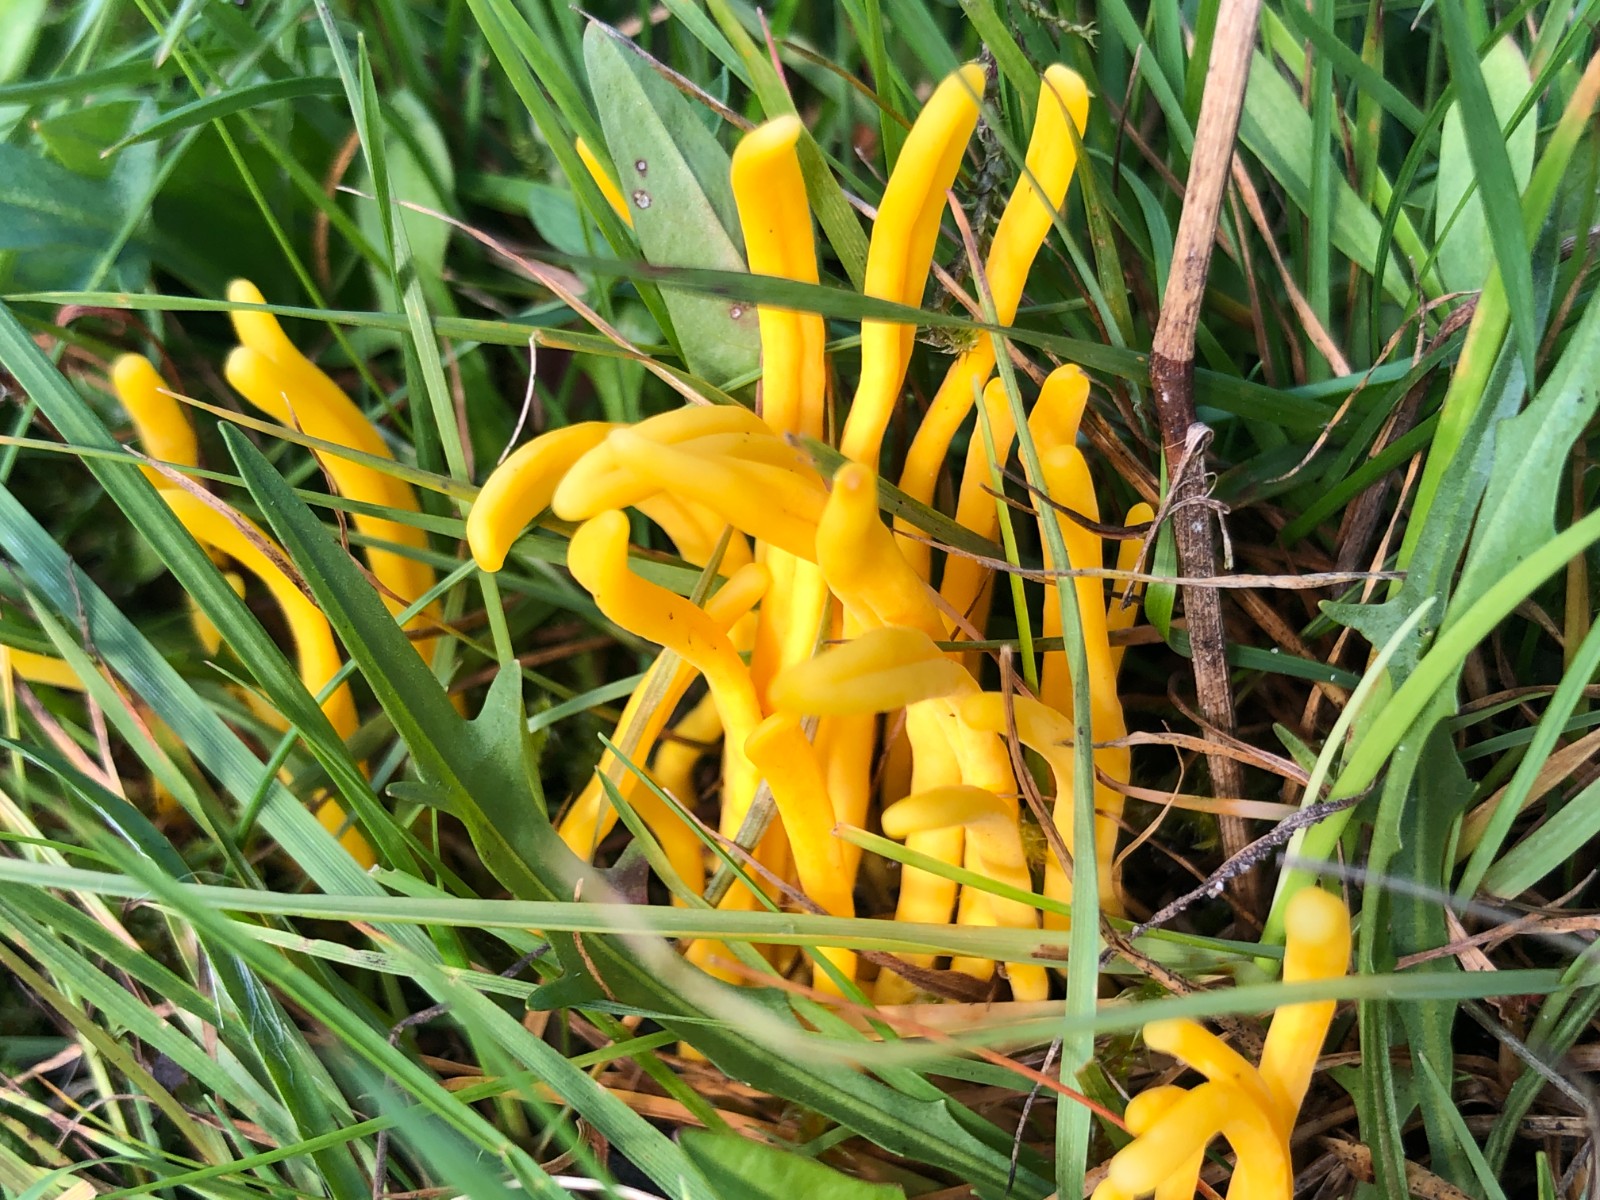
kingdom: Fungi
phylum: Basidiomycota
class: Agaricomycetes
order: Agaricales
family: Clavariaceae
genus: Clavulinopsis
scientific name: Clavulinopsis
